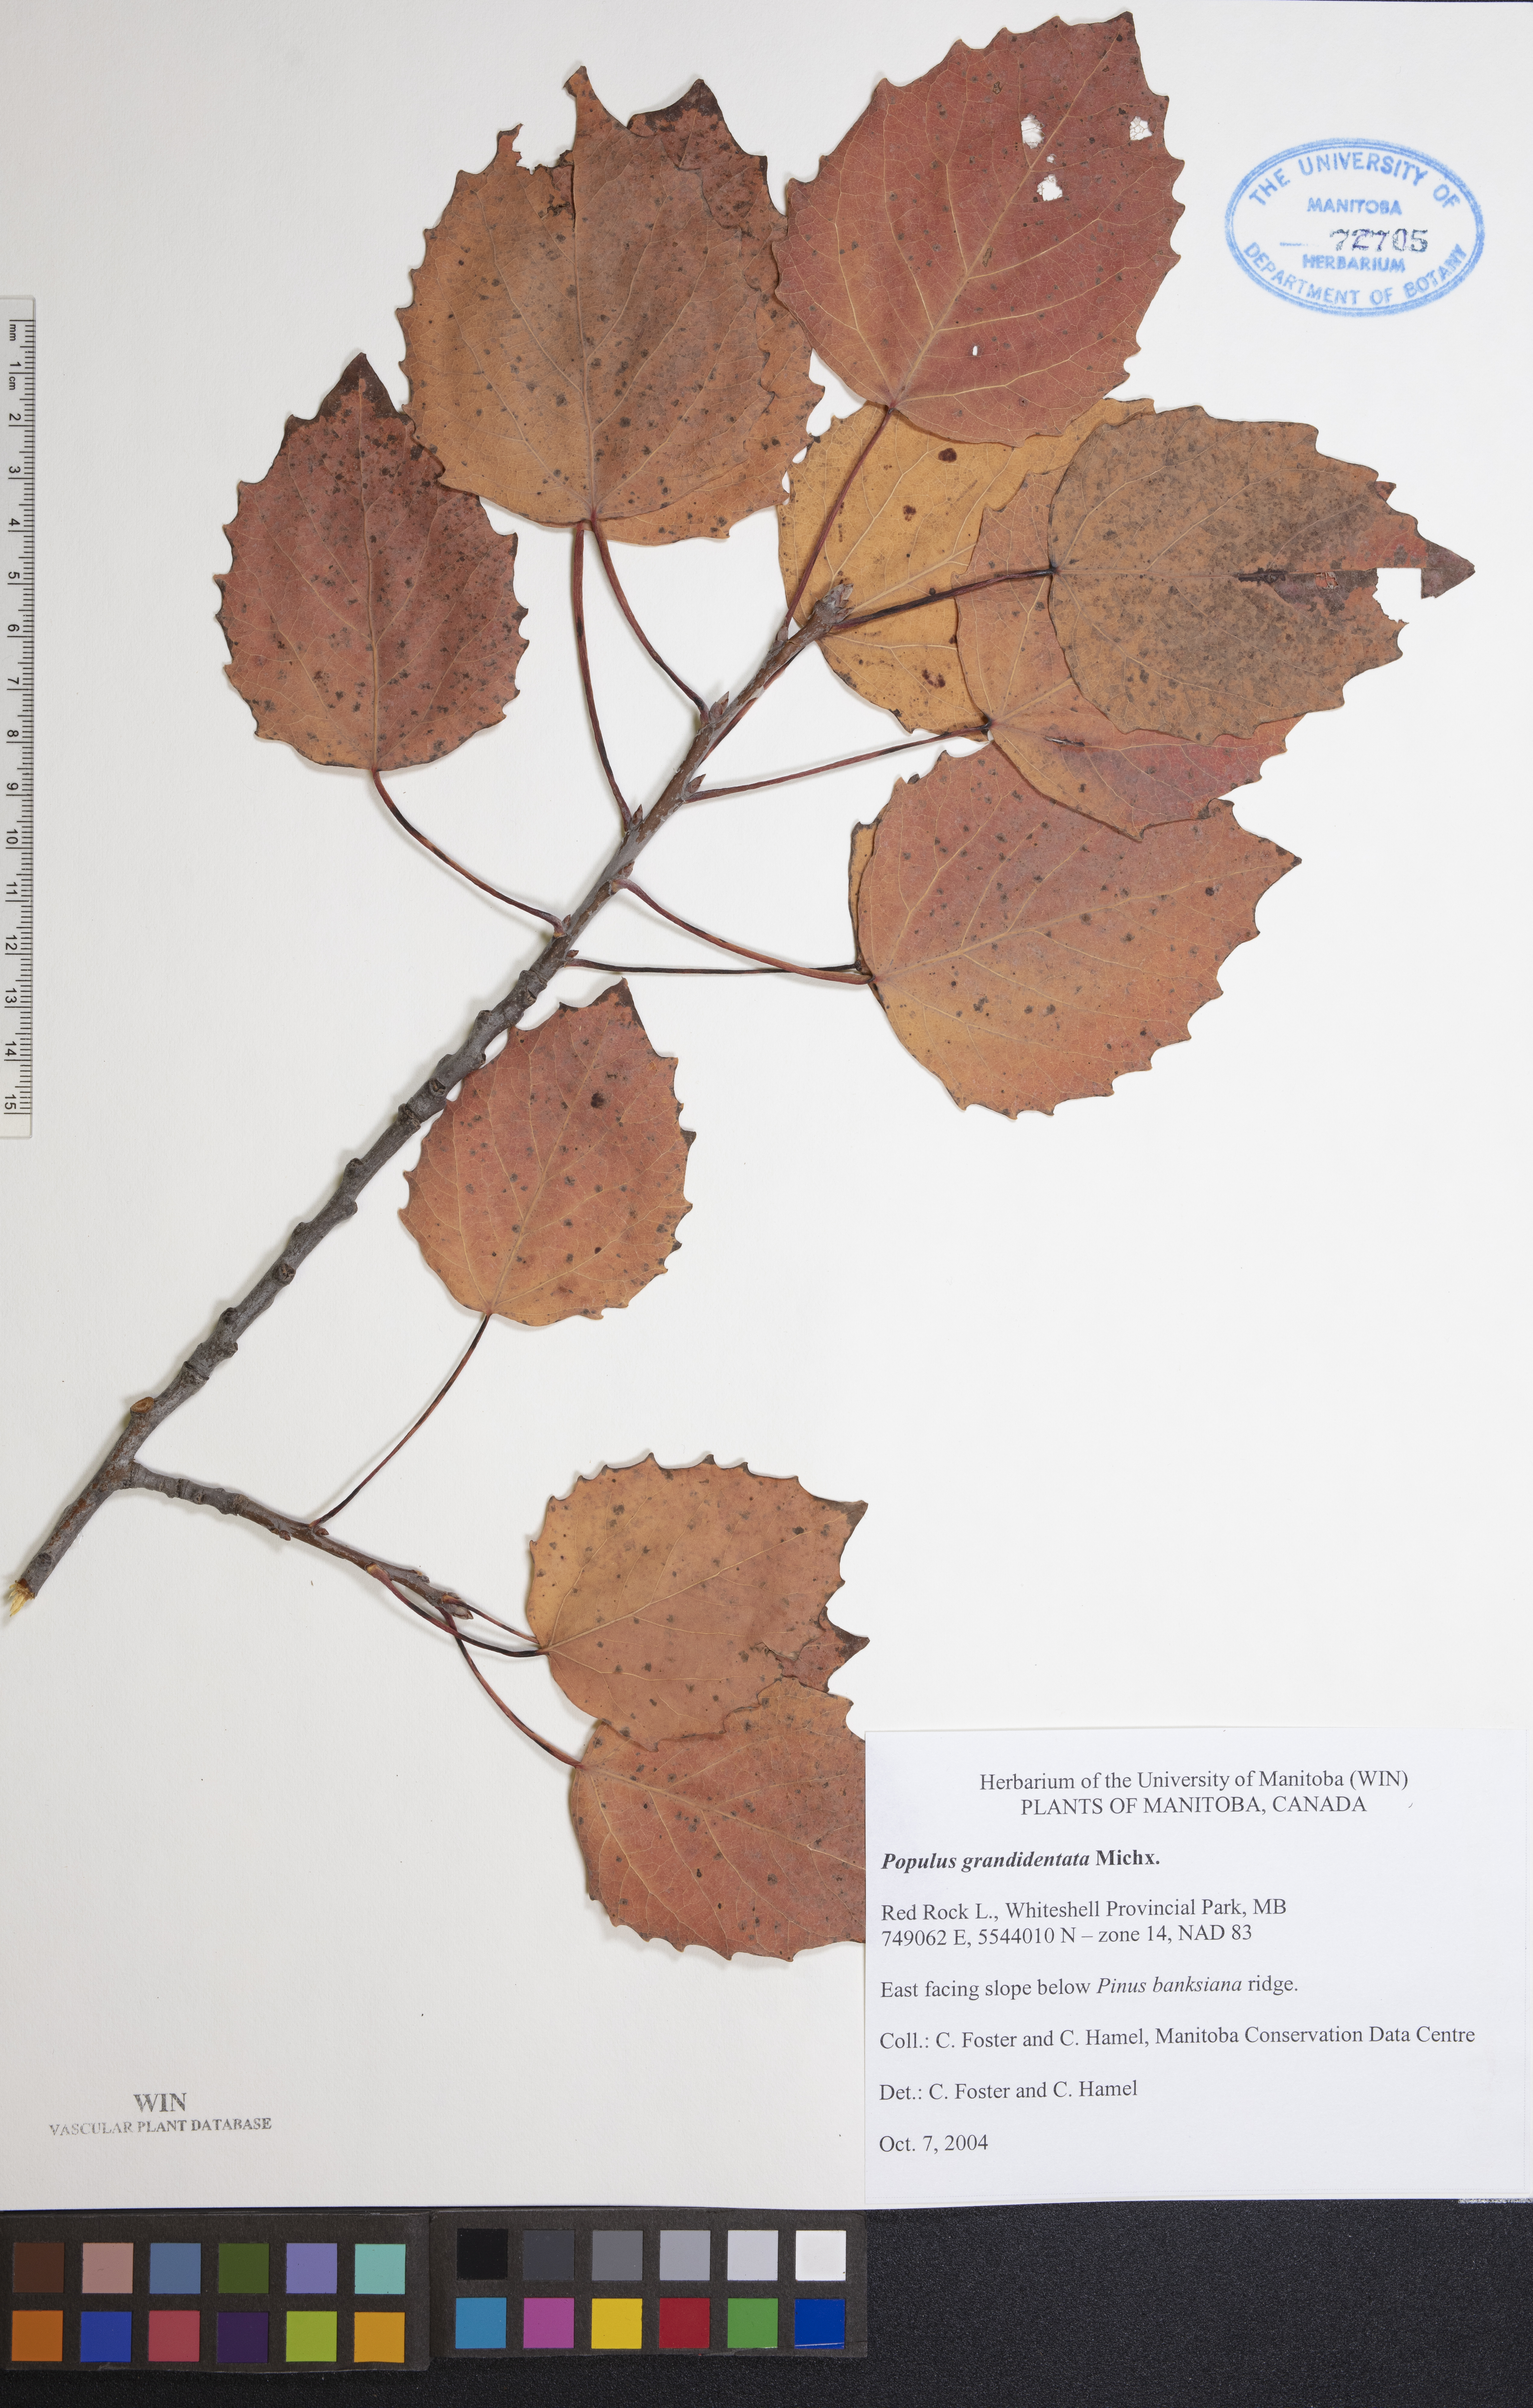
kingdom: Plantae
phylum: Tracheophyta
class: Magnoliopsida
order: Malpighiales
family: Salicaceae
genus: Populus
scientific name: Populus grandidentata
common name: Bigtooth aspen
